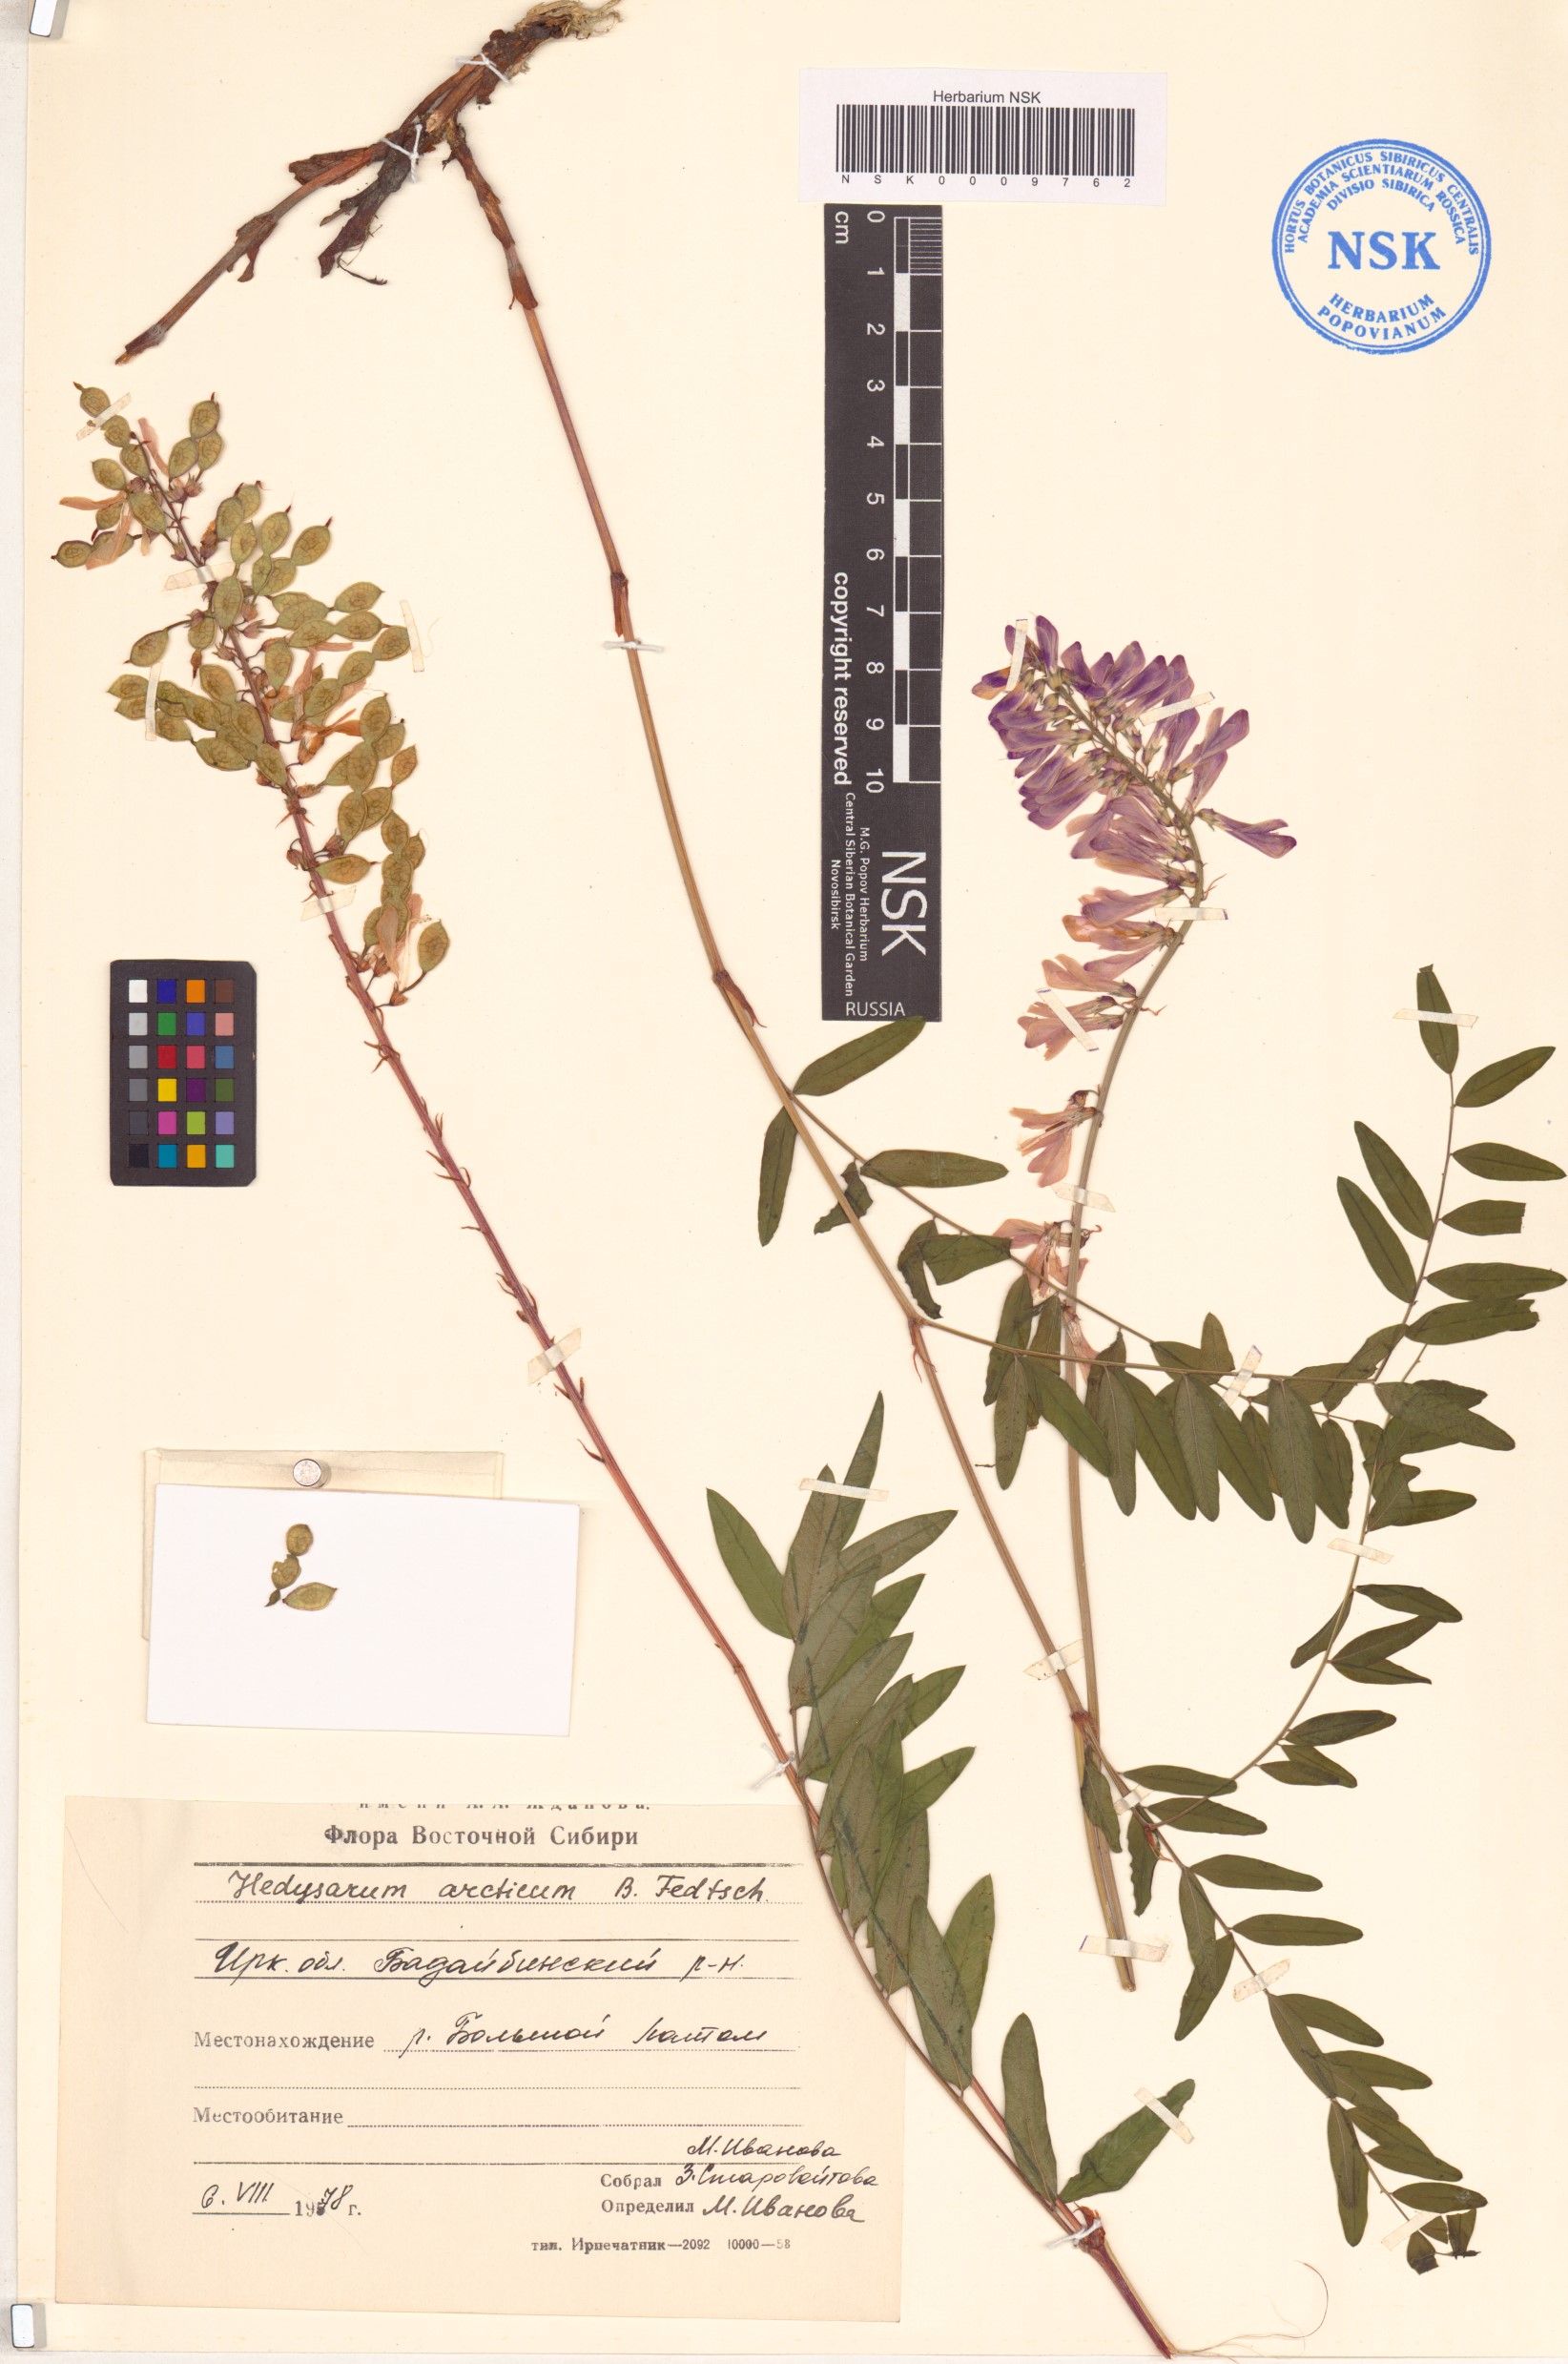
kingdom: Plantae
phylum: Tracheophyta
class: Magnoliopsida
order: Fabales
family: Fabaceae
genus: Hedysarum
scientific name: Hedysarum hedysaroides
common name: Alpine french-honeysuckle
